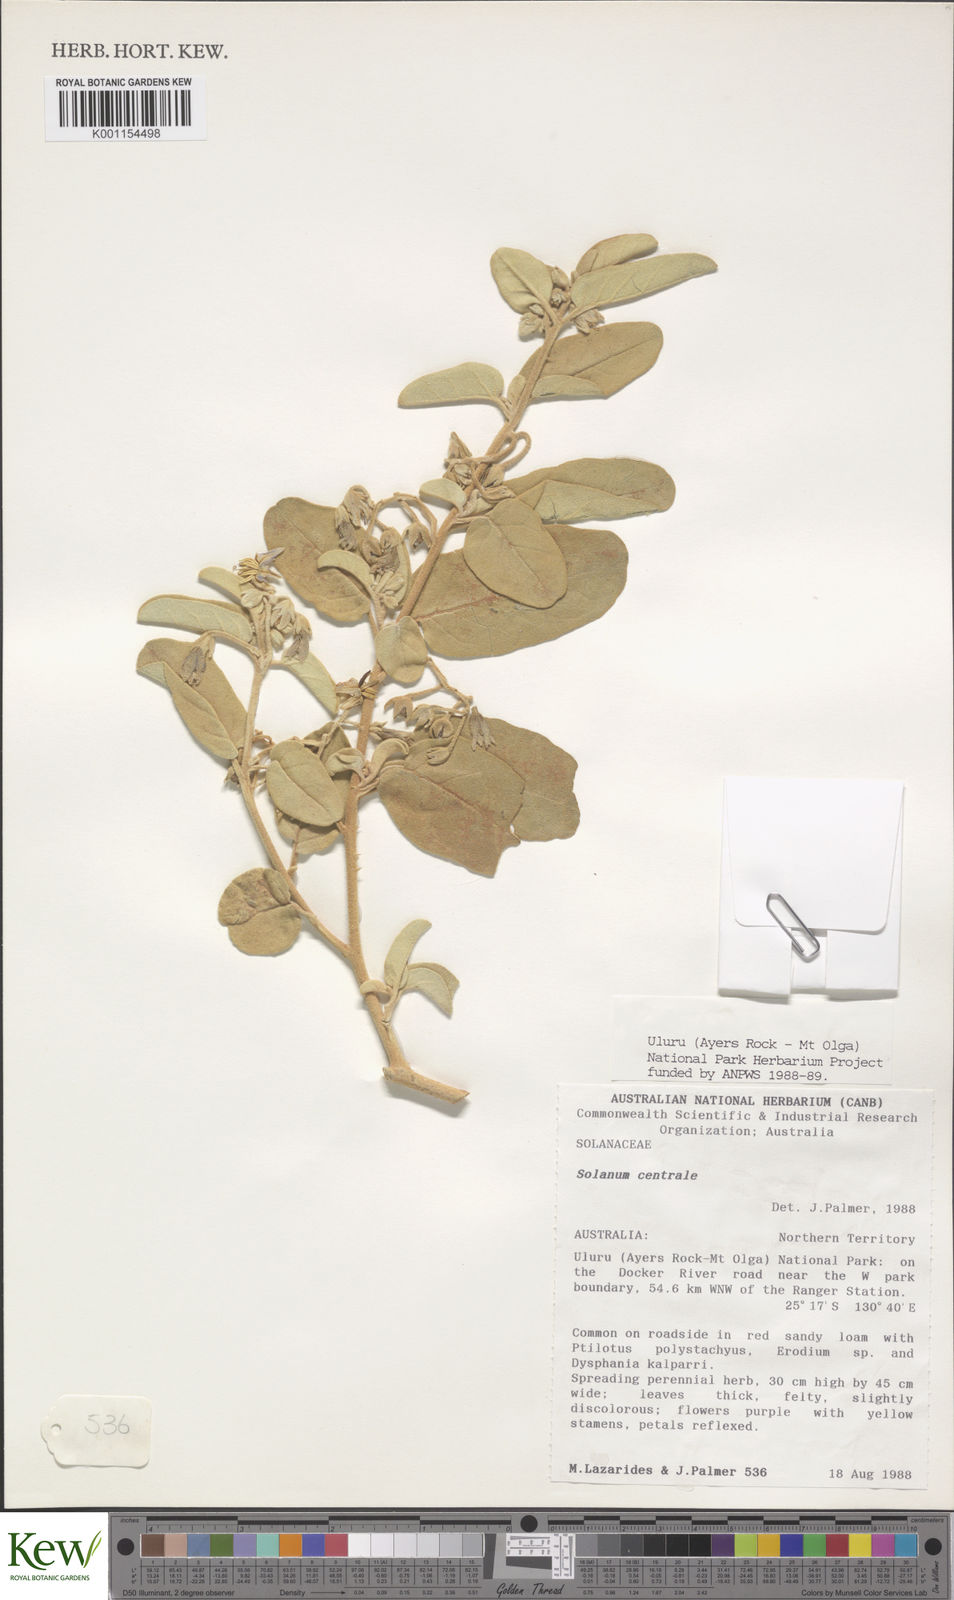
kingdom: Plantae
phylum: Tracheophyta
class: Magnoliopsida
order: Solanales
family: Solanaceae
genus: Solanum
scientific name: Solanum centrale
